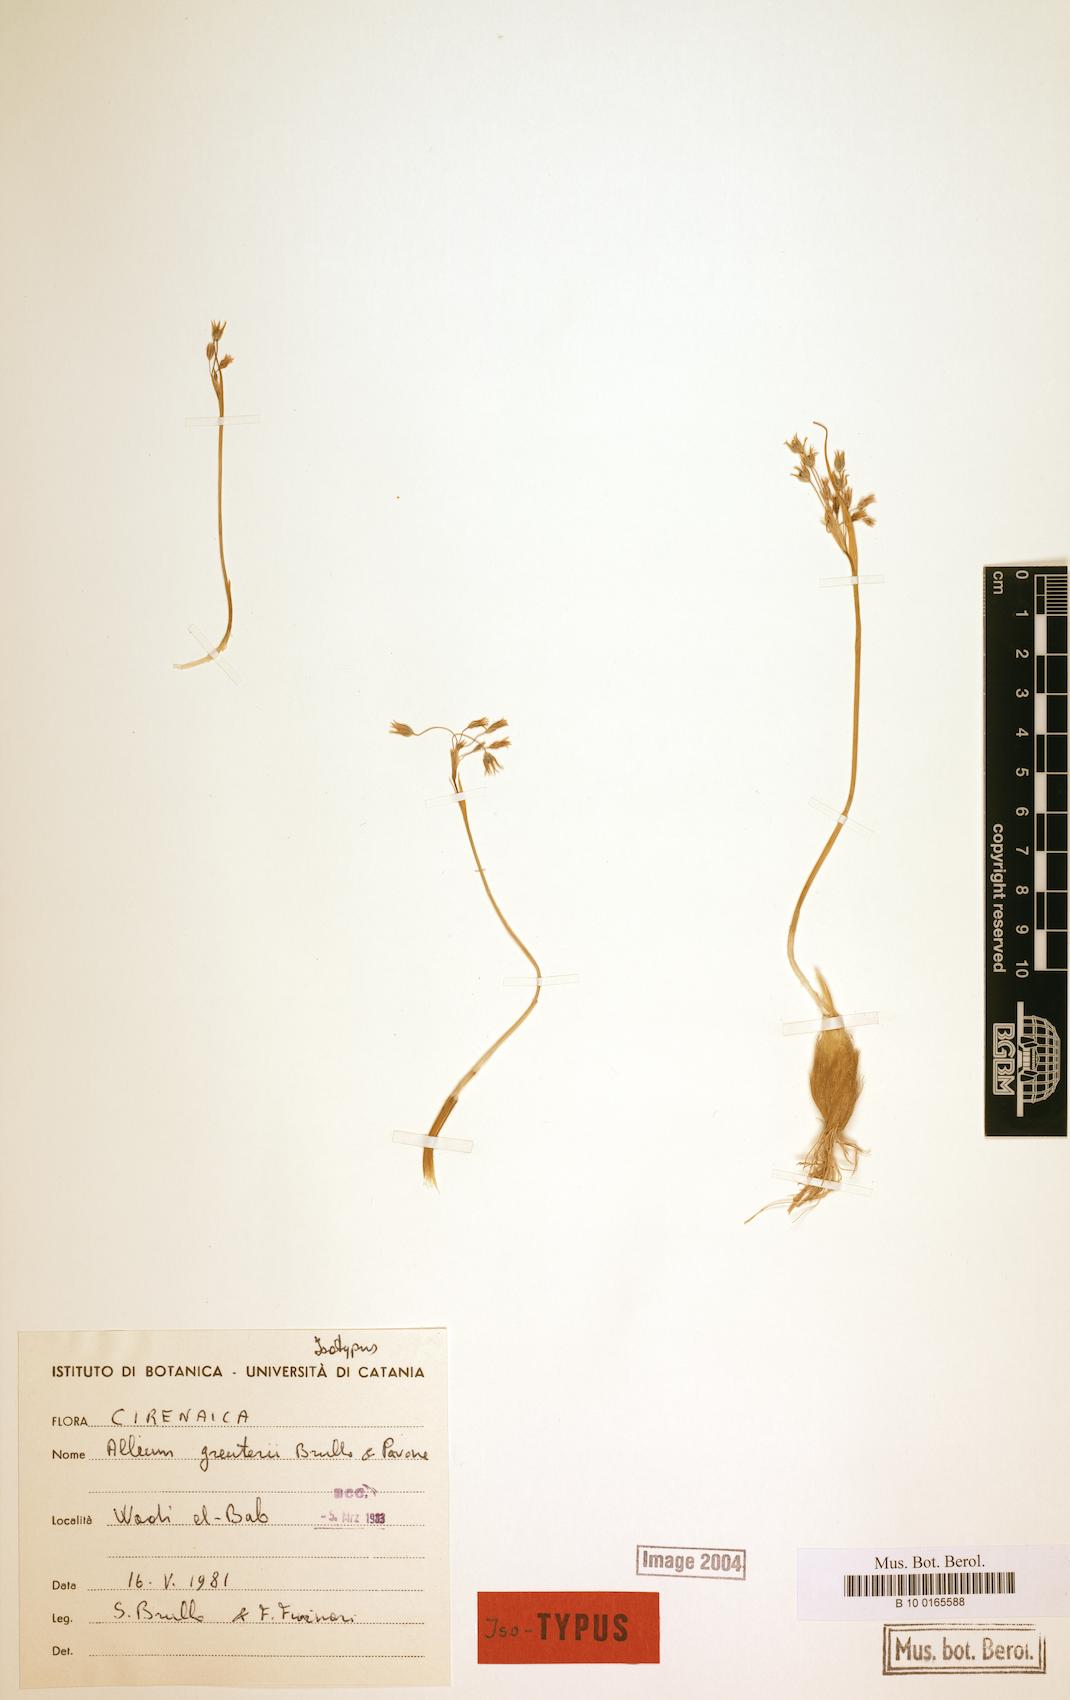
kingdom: Plantae
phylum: Tracheophyta
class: Liliopsida
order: Asparagales
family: Amaryllidaceae
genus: Allium
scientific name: Allium greuteri
